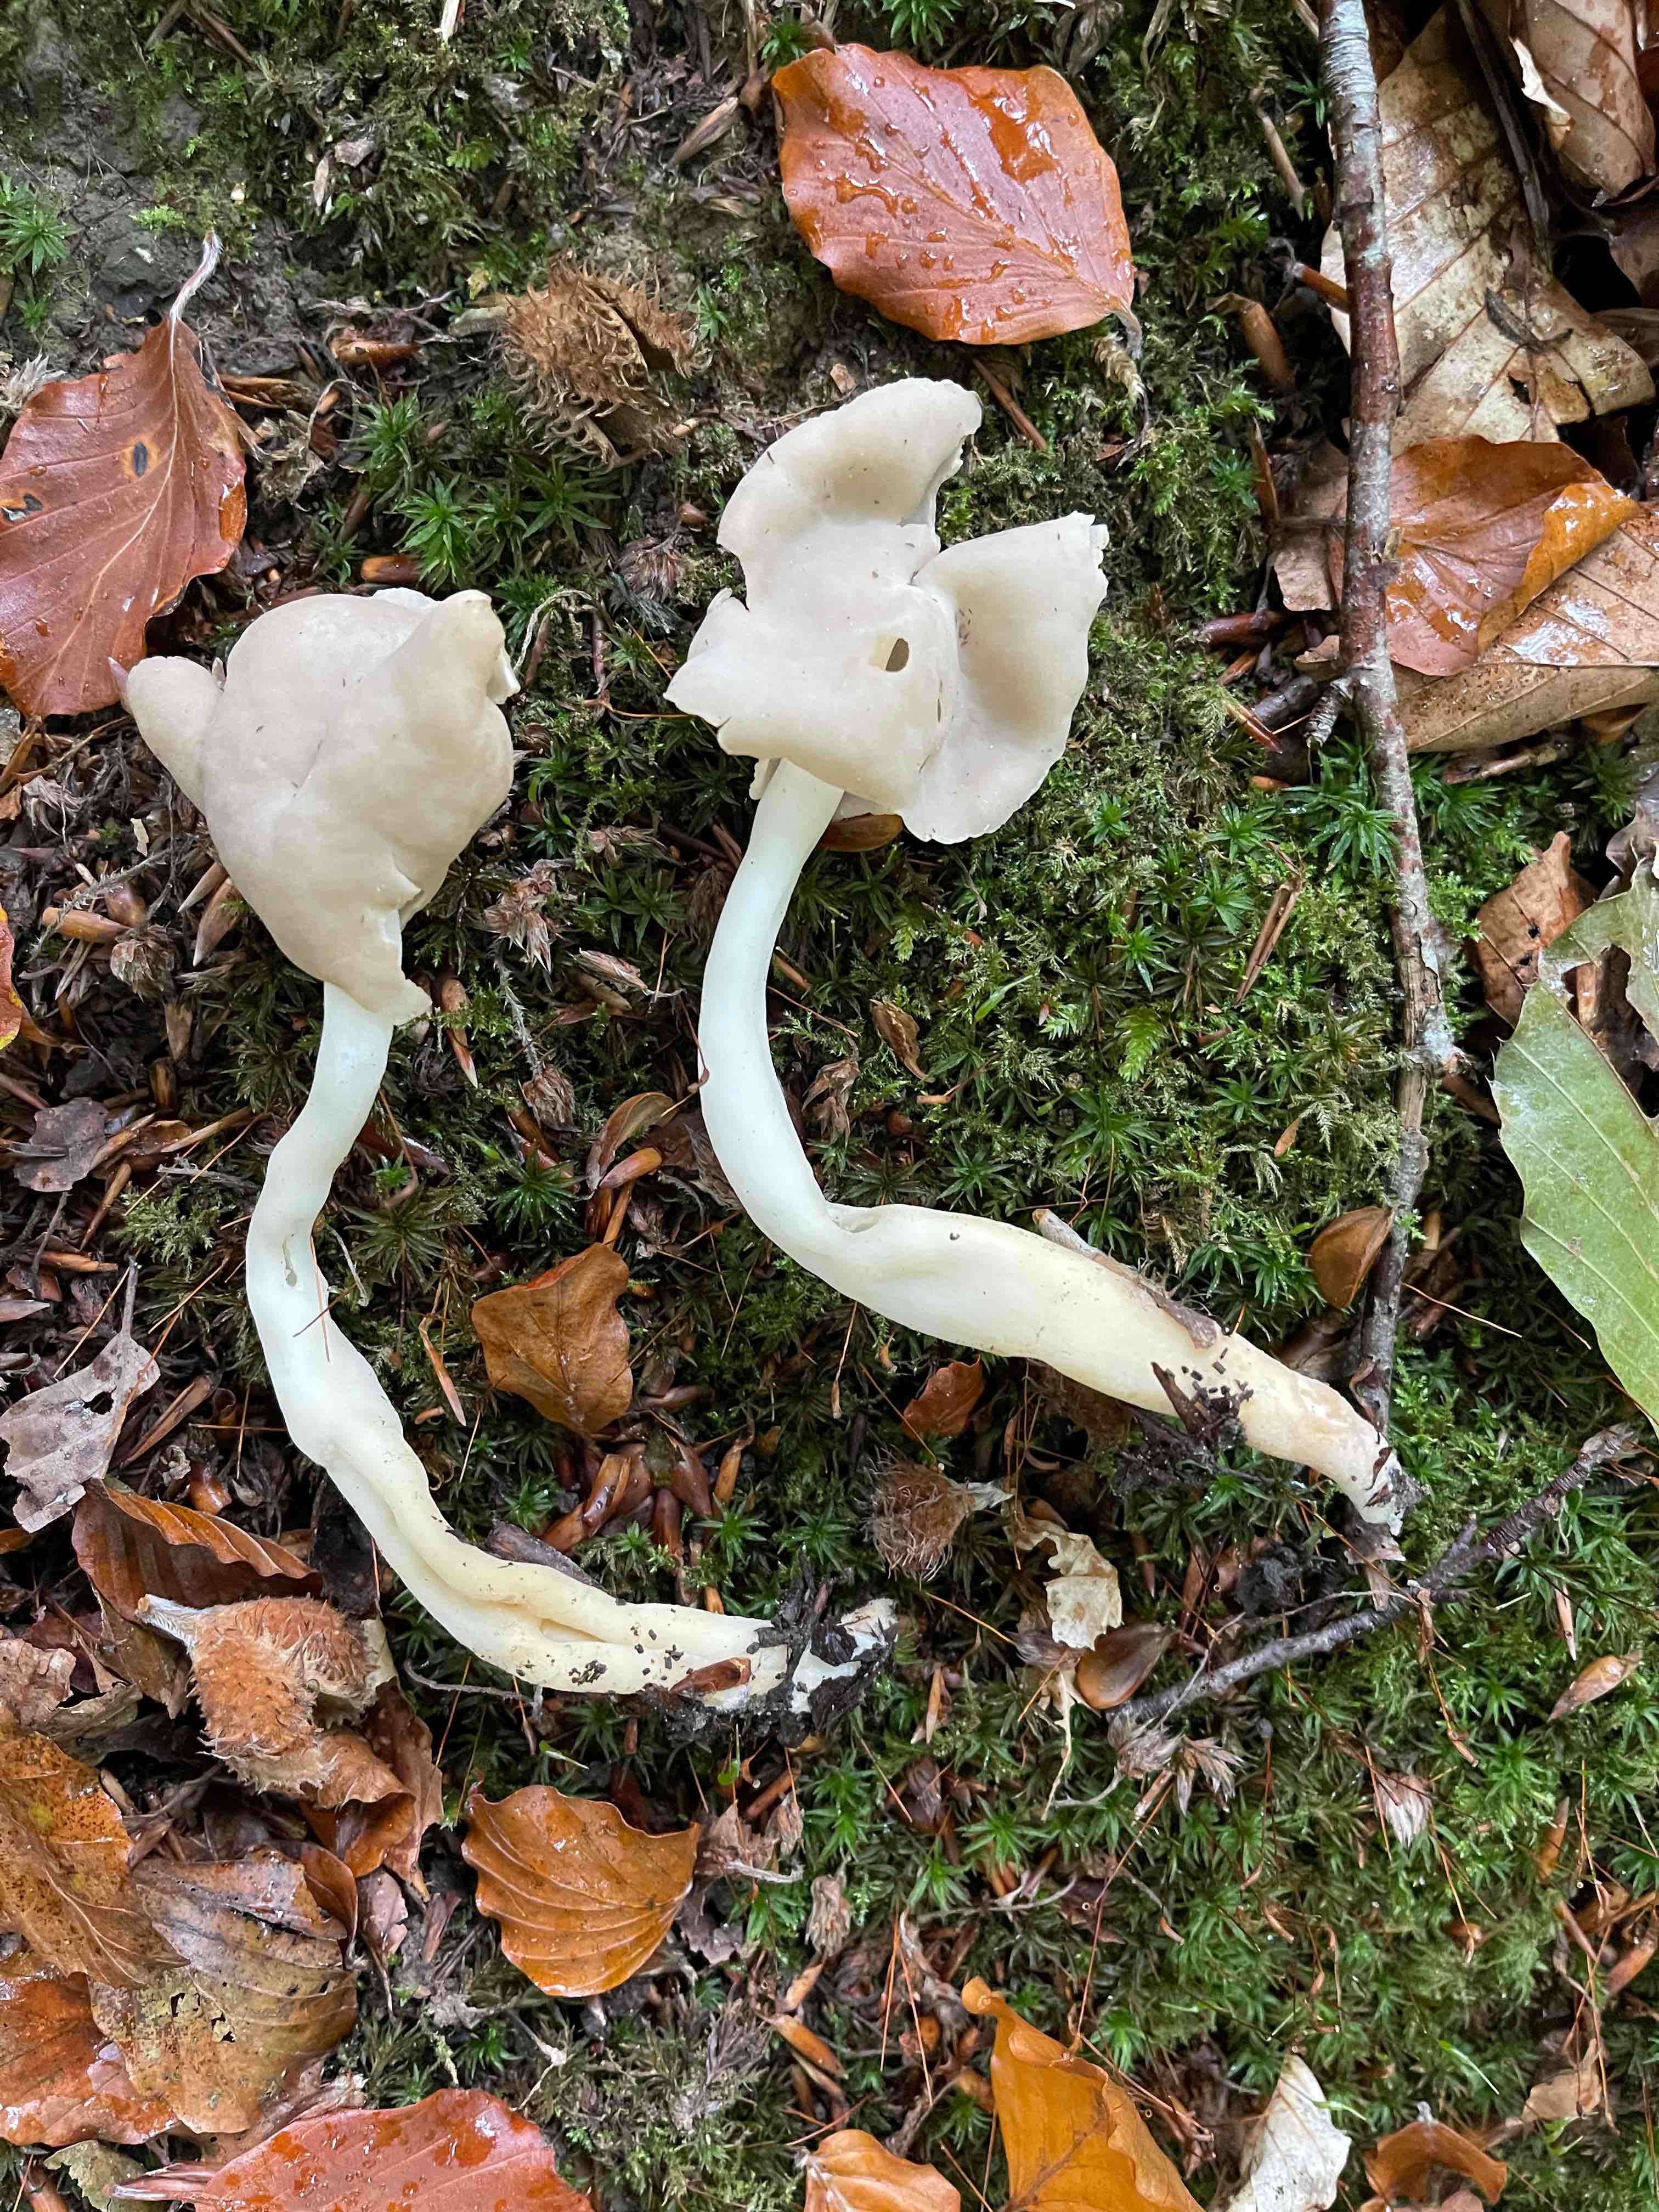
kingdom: Fungi
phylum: Ascomycota
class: Pezizomycetes
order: Pezizales
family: Helvellaceae
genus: Helvella
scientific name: Helvella elastica
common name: elastik-foldhat
